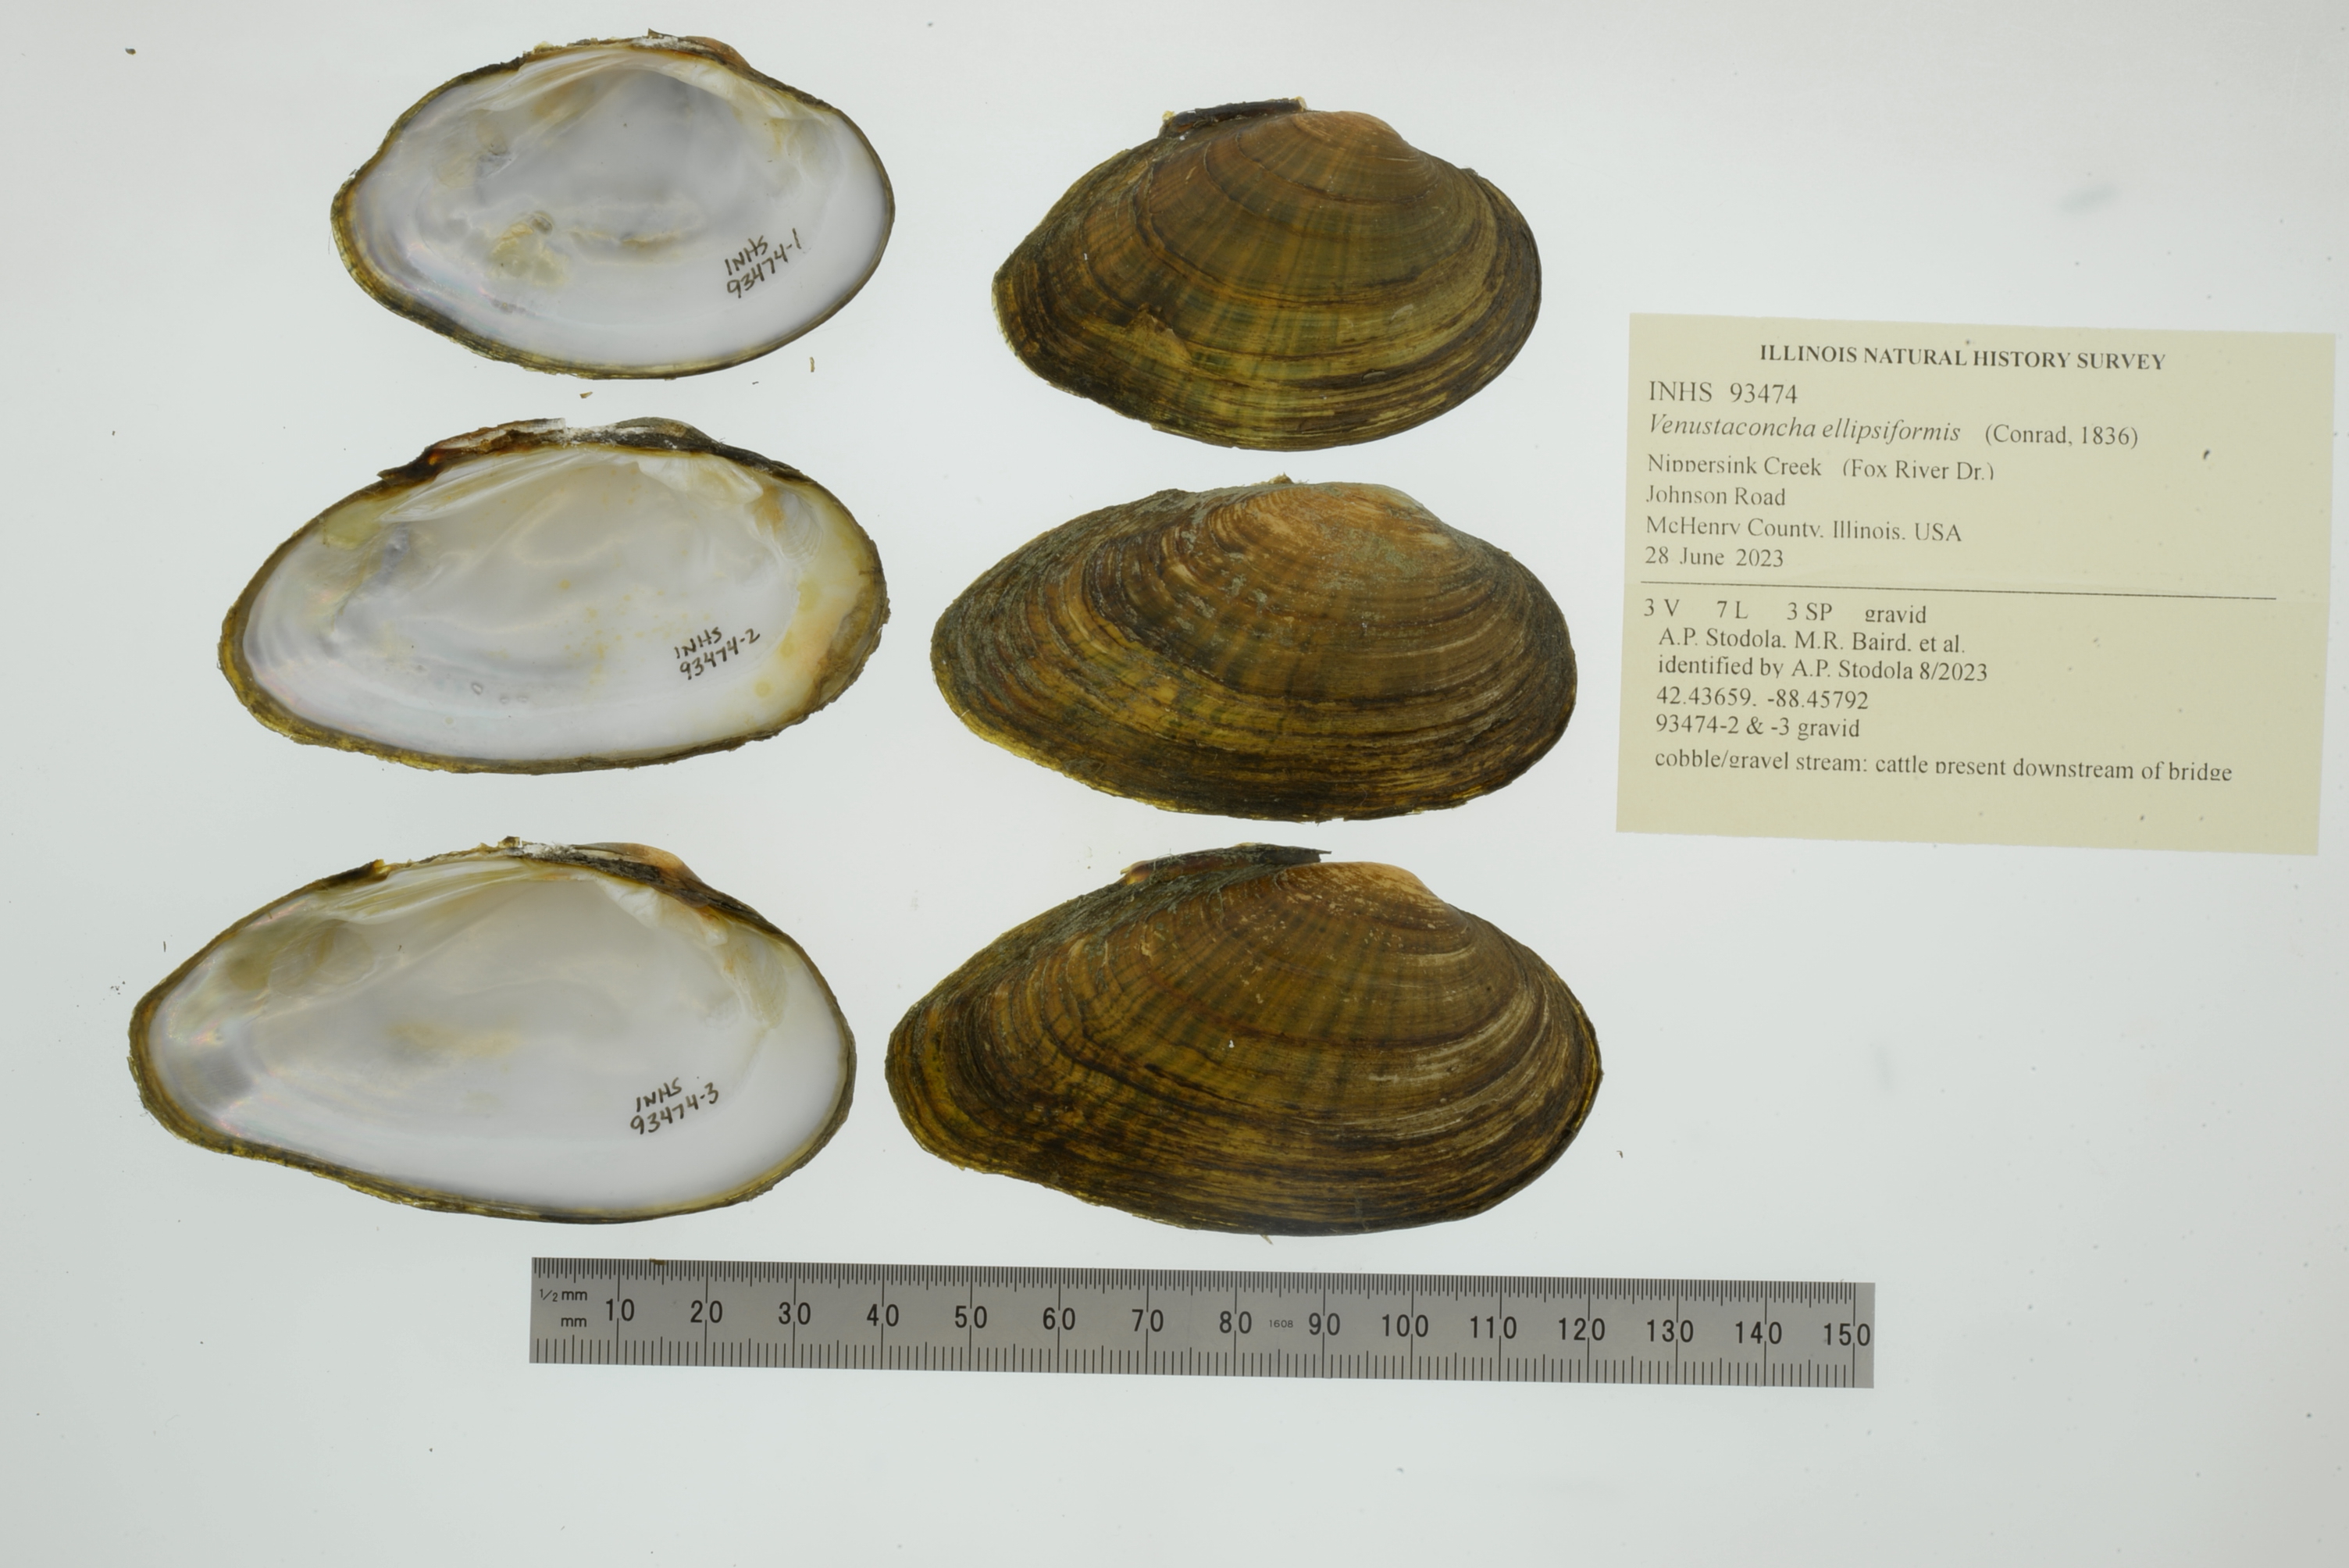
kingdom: Animalia
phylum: Mollusca
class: Bivalvia
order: Unionida
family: Unionidae
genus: Venustaconcha
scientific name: Venustaconcha ellipsiformis
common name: Ellipse
